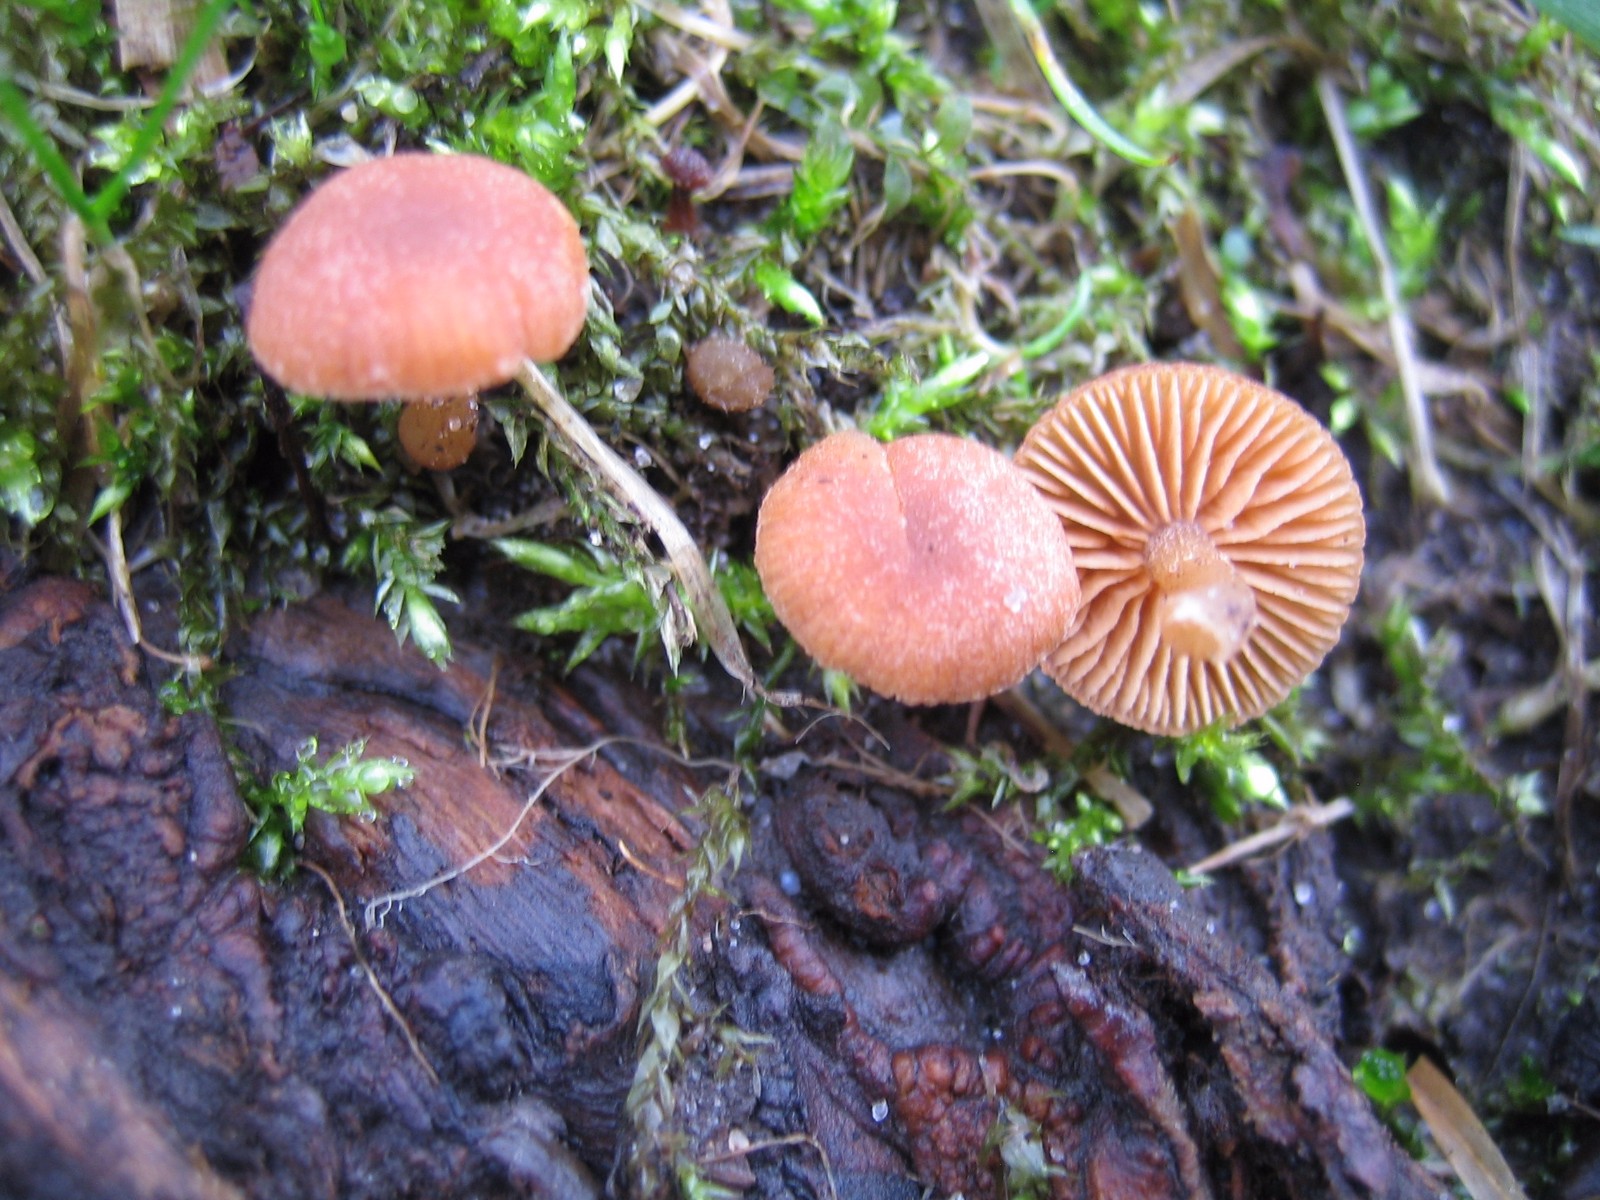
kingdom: Fungi
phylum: Basidiomycota
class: Agaricomycetes
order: Agaricales
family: Tubariaceae
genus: Tubaria
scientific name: Tubaria furfuracea
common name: kliddet fnughat
